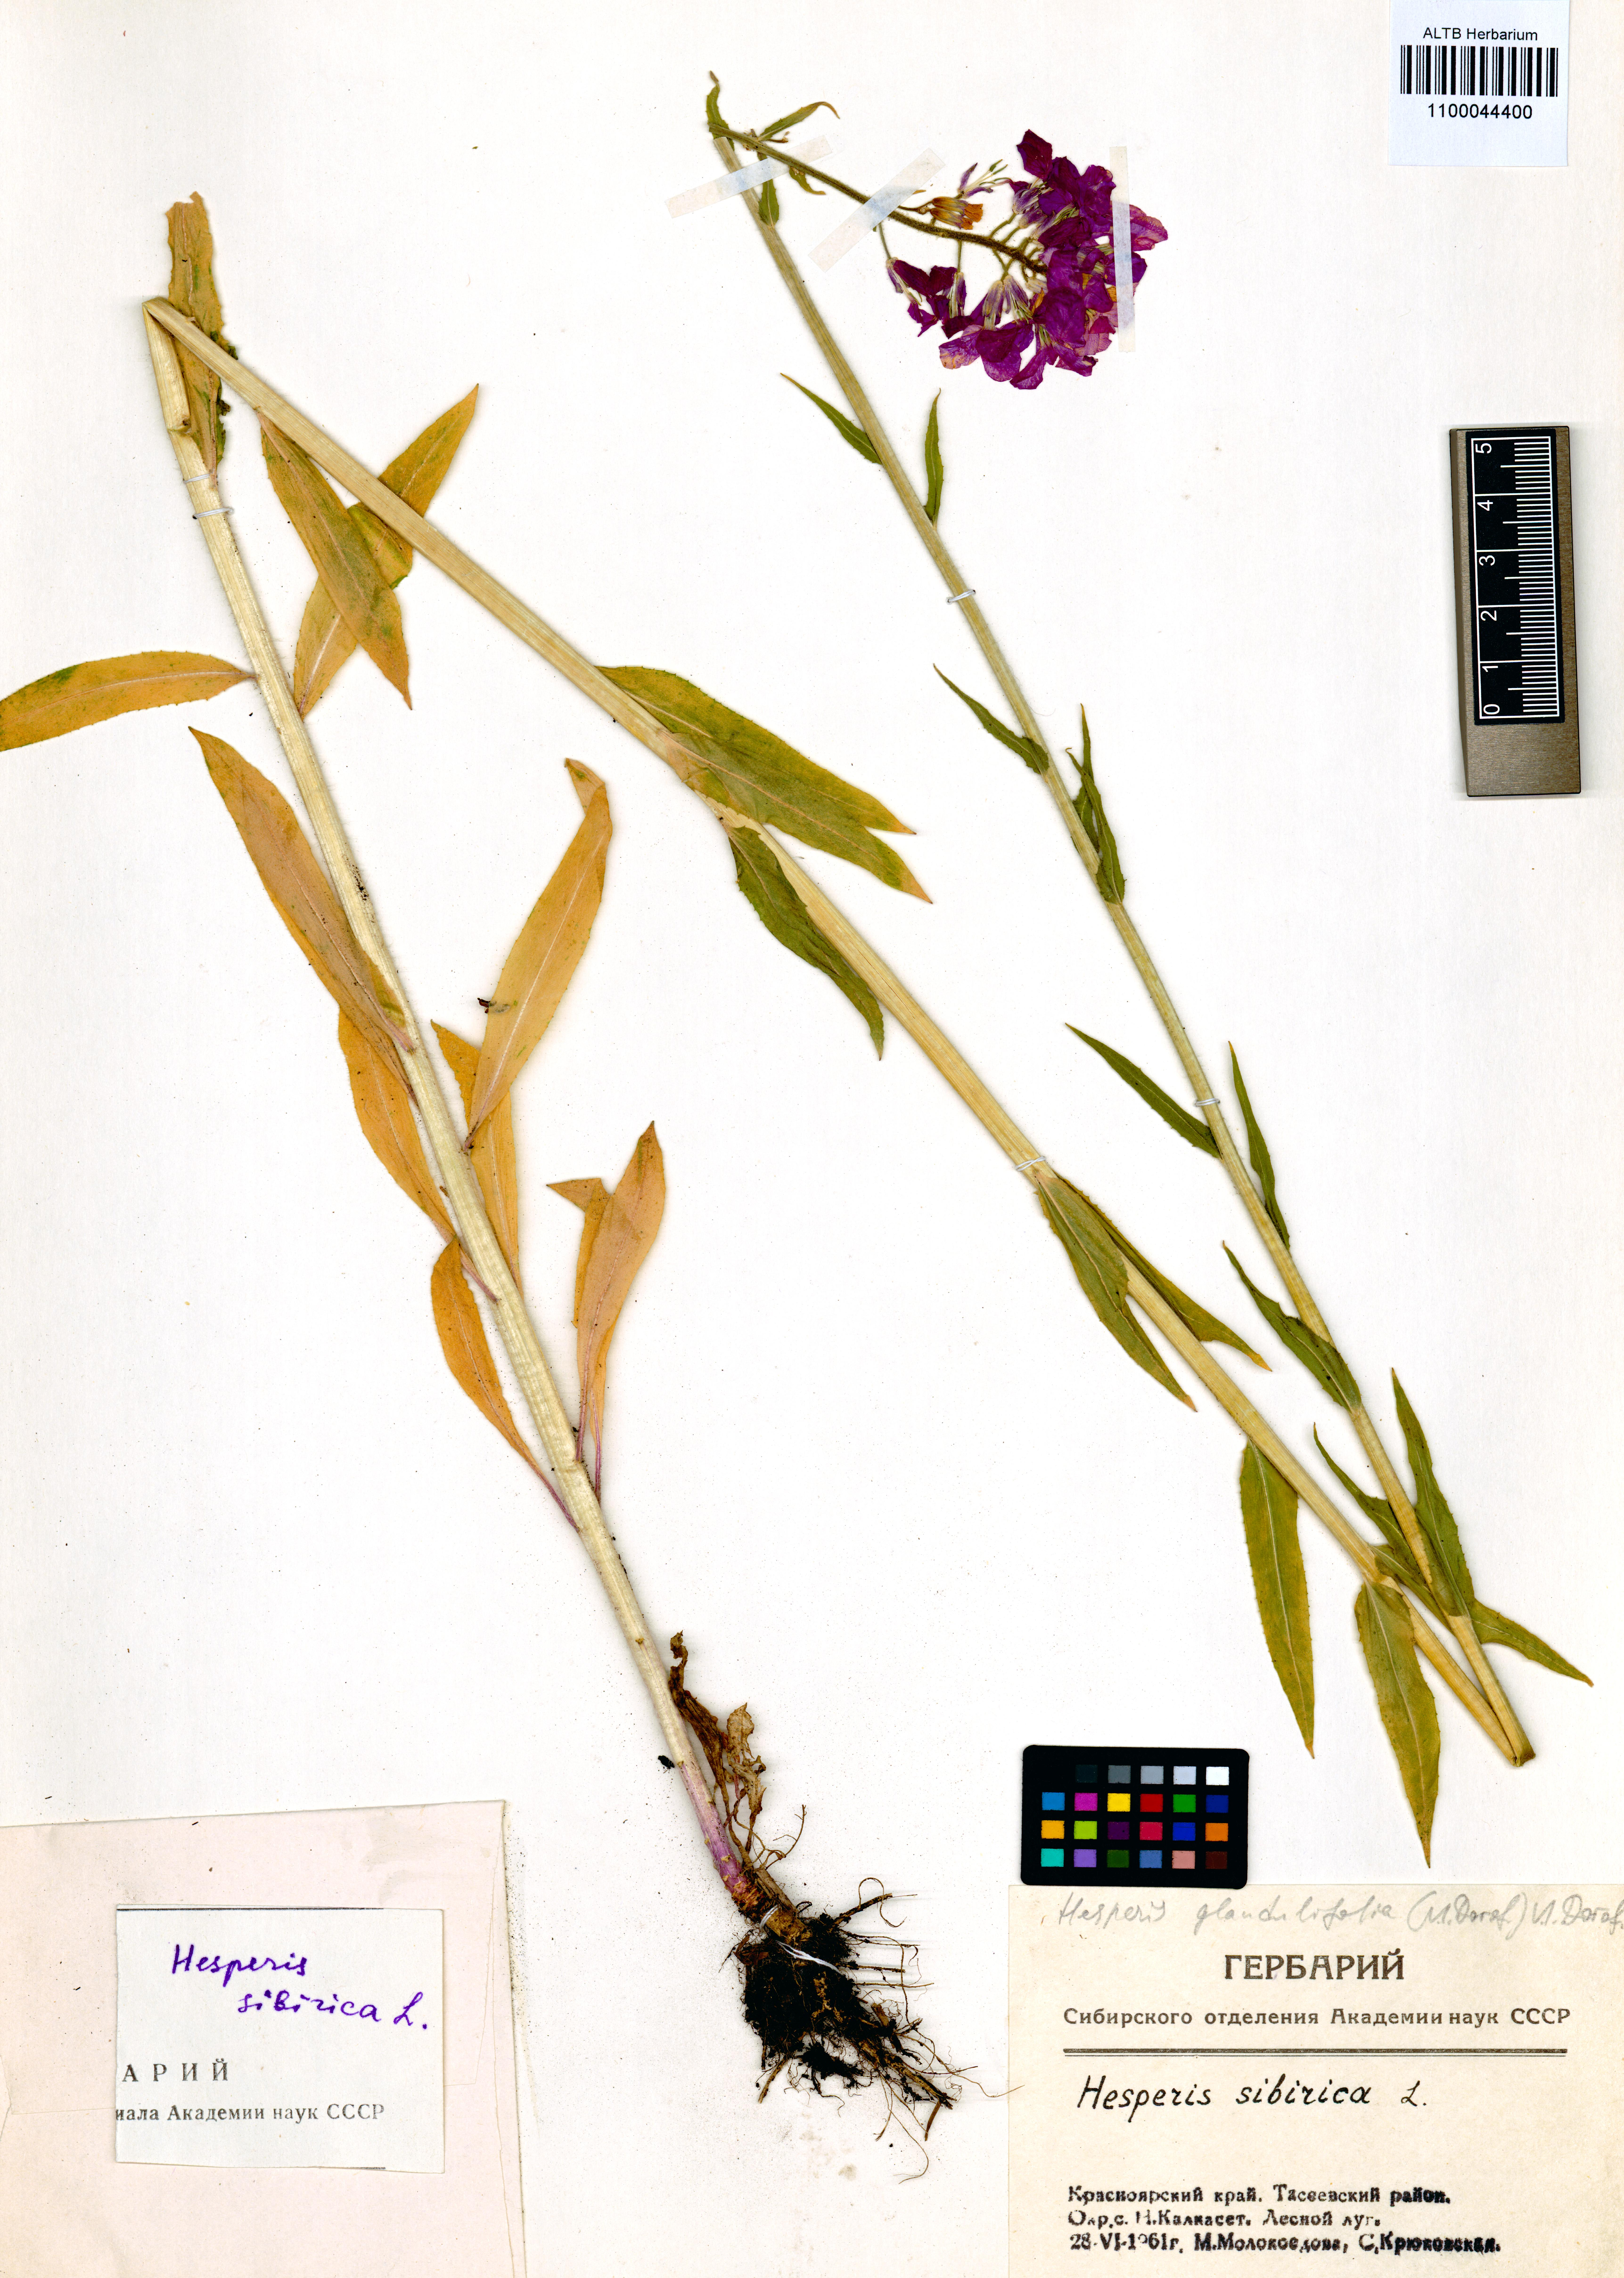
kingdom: Plantae
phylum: Tracheophyta
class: Magnoliopsida
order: Brassicales
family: Brassicaceae
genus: Hesperis
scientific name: Hesperis sibirica
